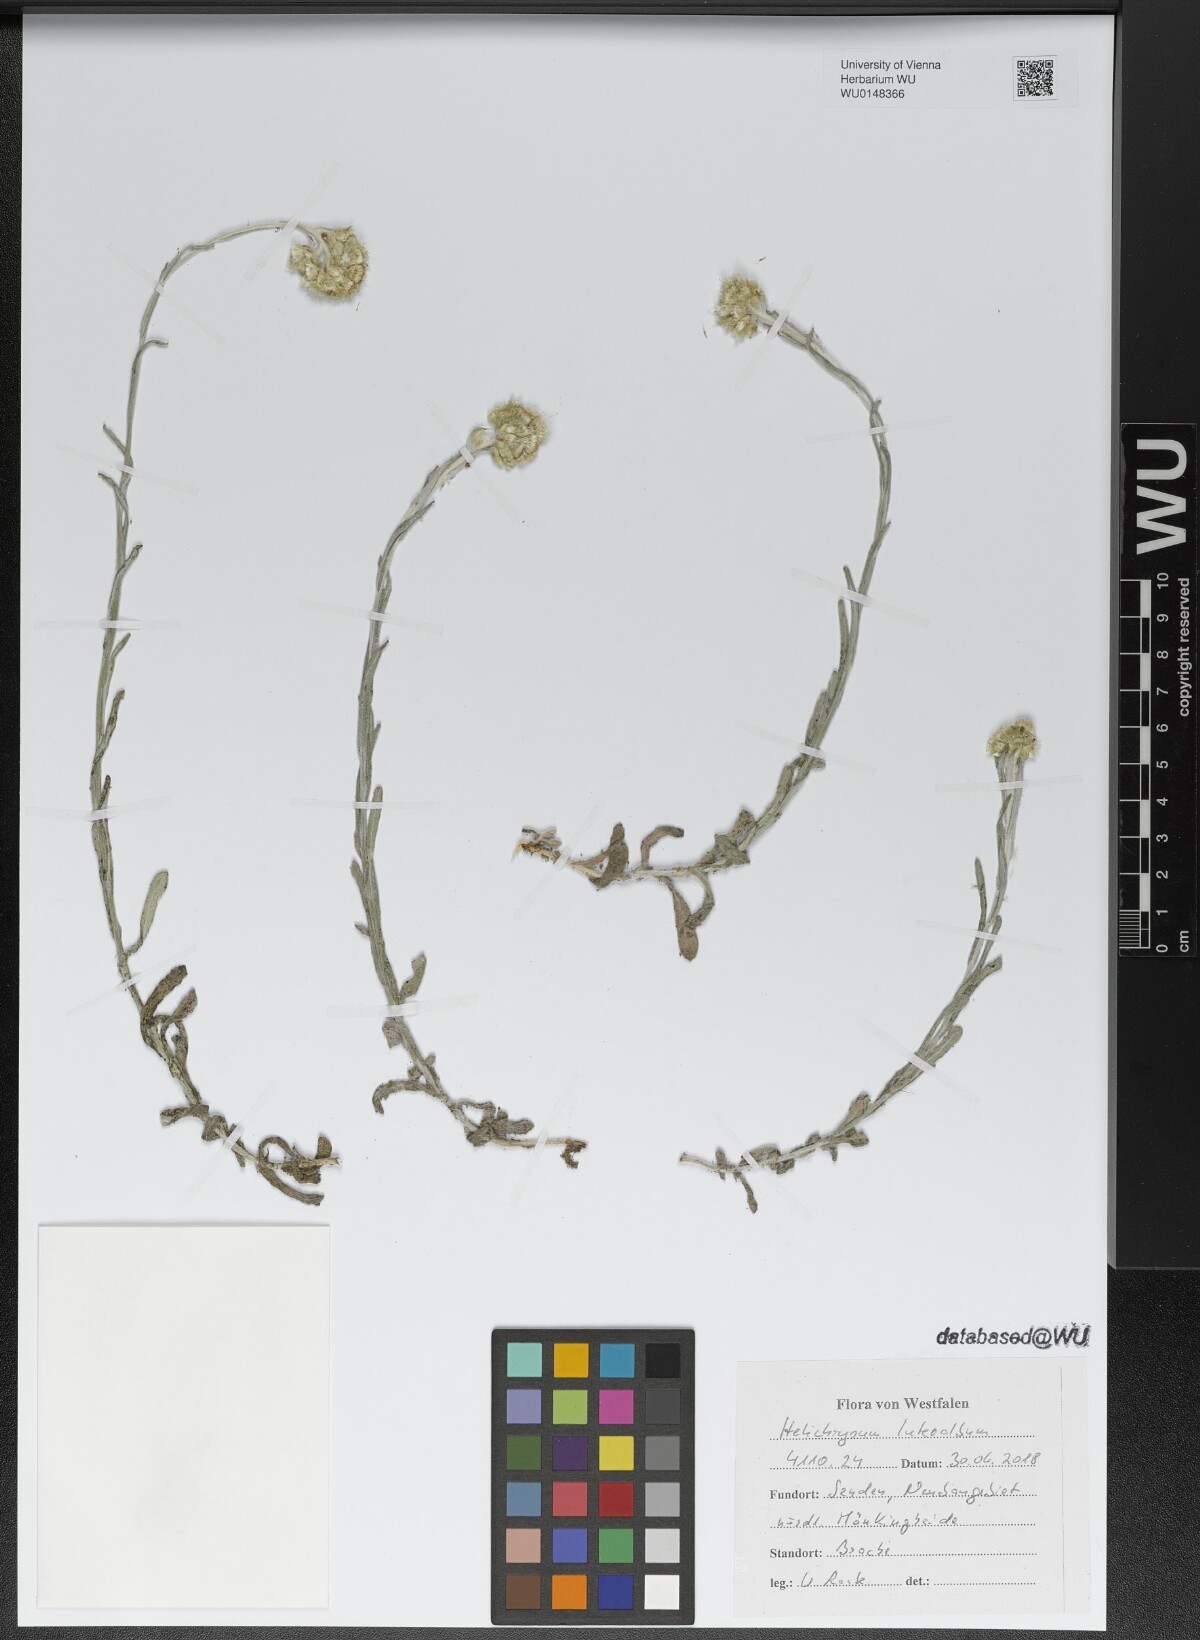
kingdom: Plantae
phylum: Tracheophyta
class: Magnoliopsida
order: Asterales
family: Asteraceae
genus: Helichrysum
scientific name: Helichrysum luteoalbum
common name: Daisy
